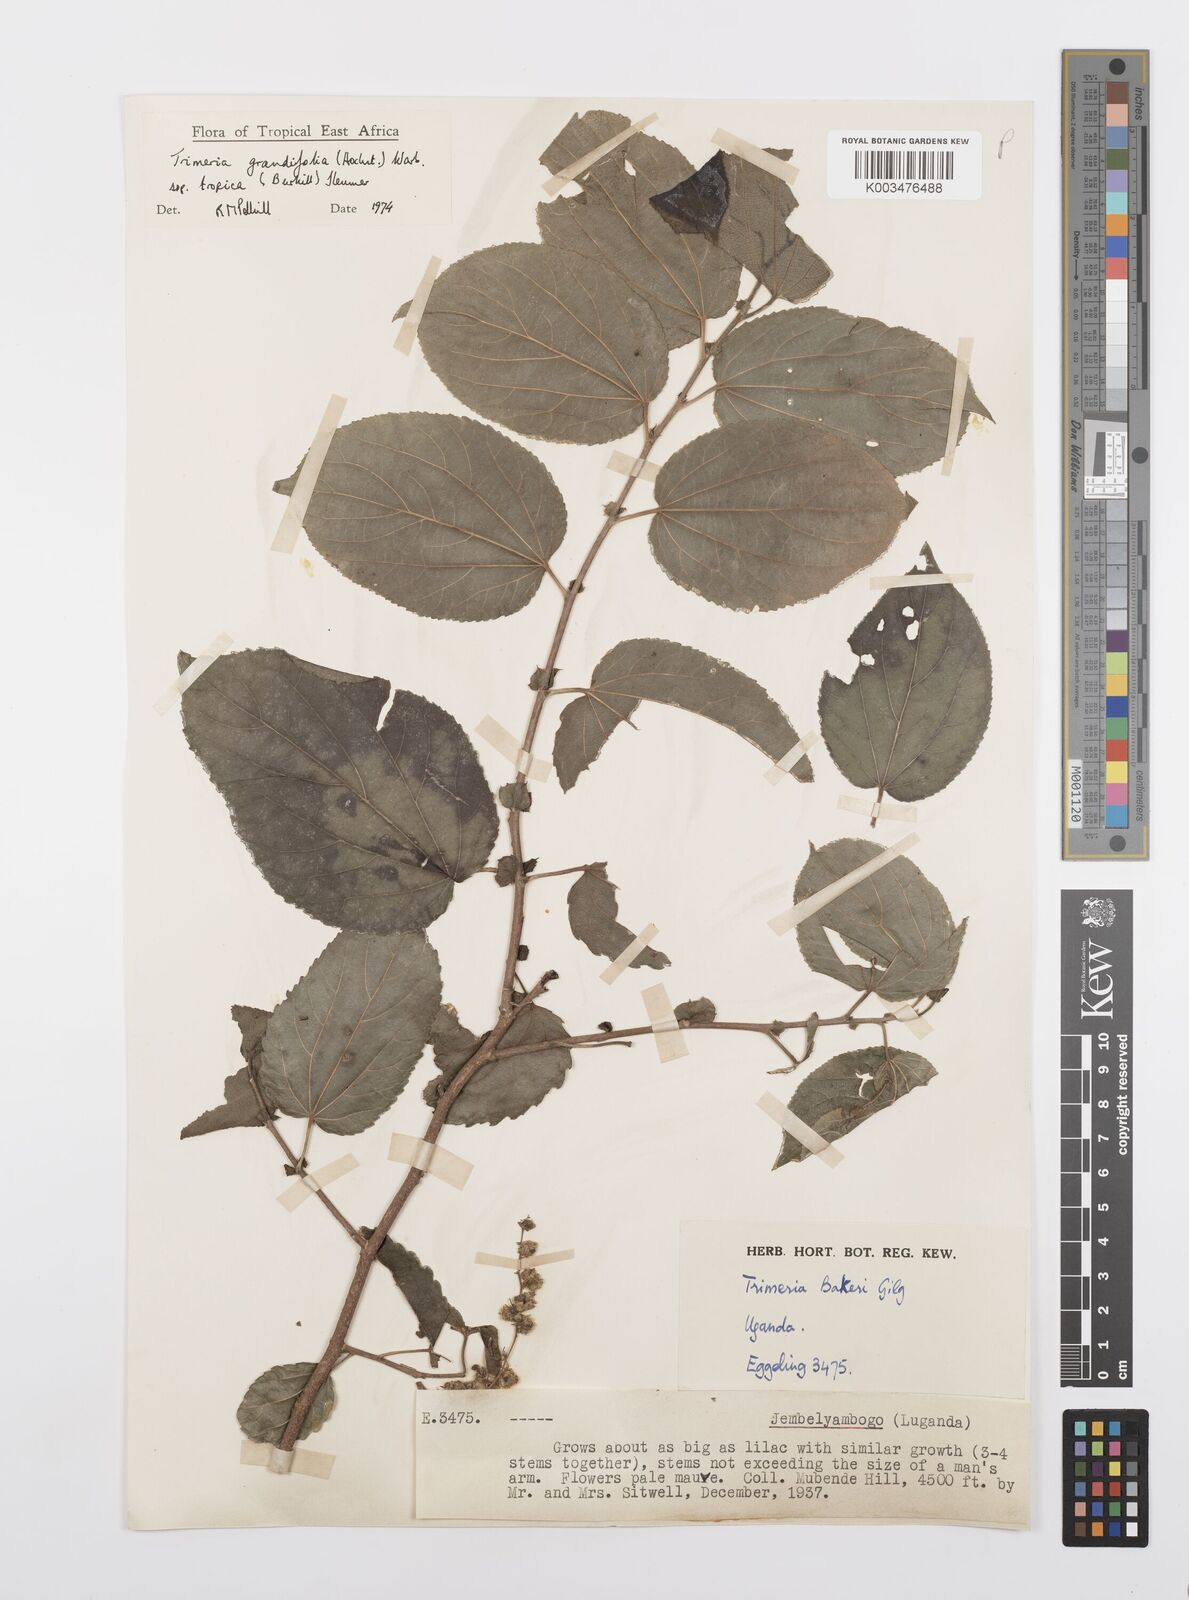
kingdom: Plantae
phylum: Tracheophyta
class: Magnoliopsida
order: Malpighiales
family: Salicaceae
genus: Trimeria
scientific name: Trimeria grandifolia
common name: Wild mulberry
